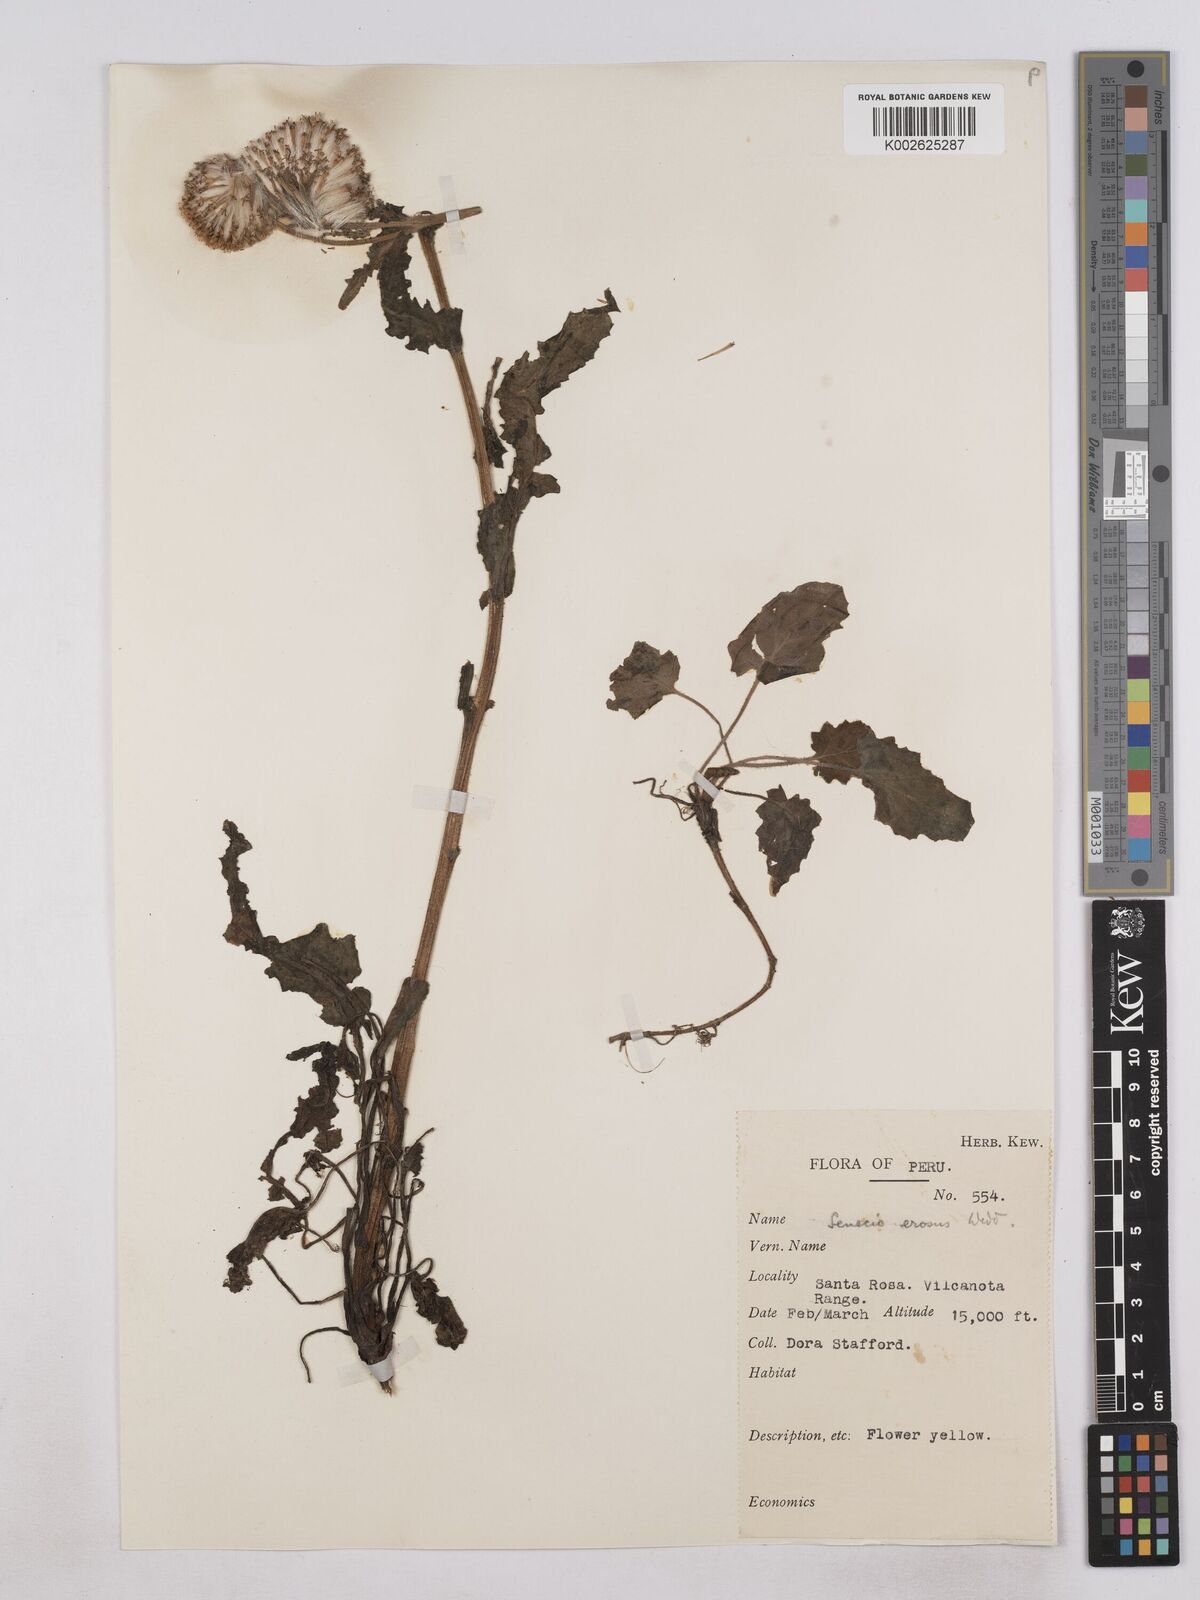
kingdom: Plantae
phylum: Tracheophyta
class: Magnoliopsida
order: Asterales
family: Asteraceae
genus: Senecio
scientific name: Senecio rhizomatus
